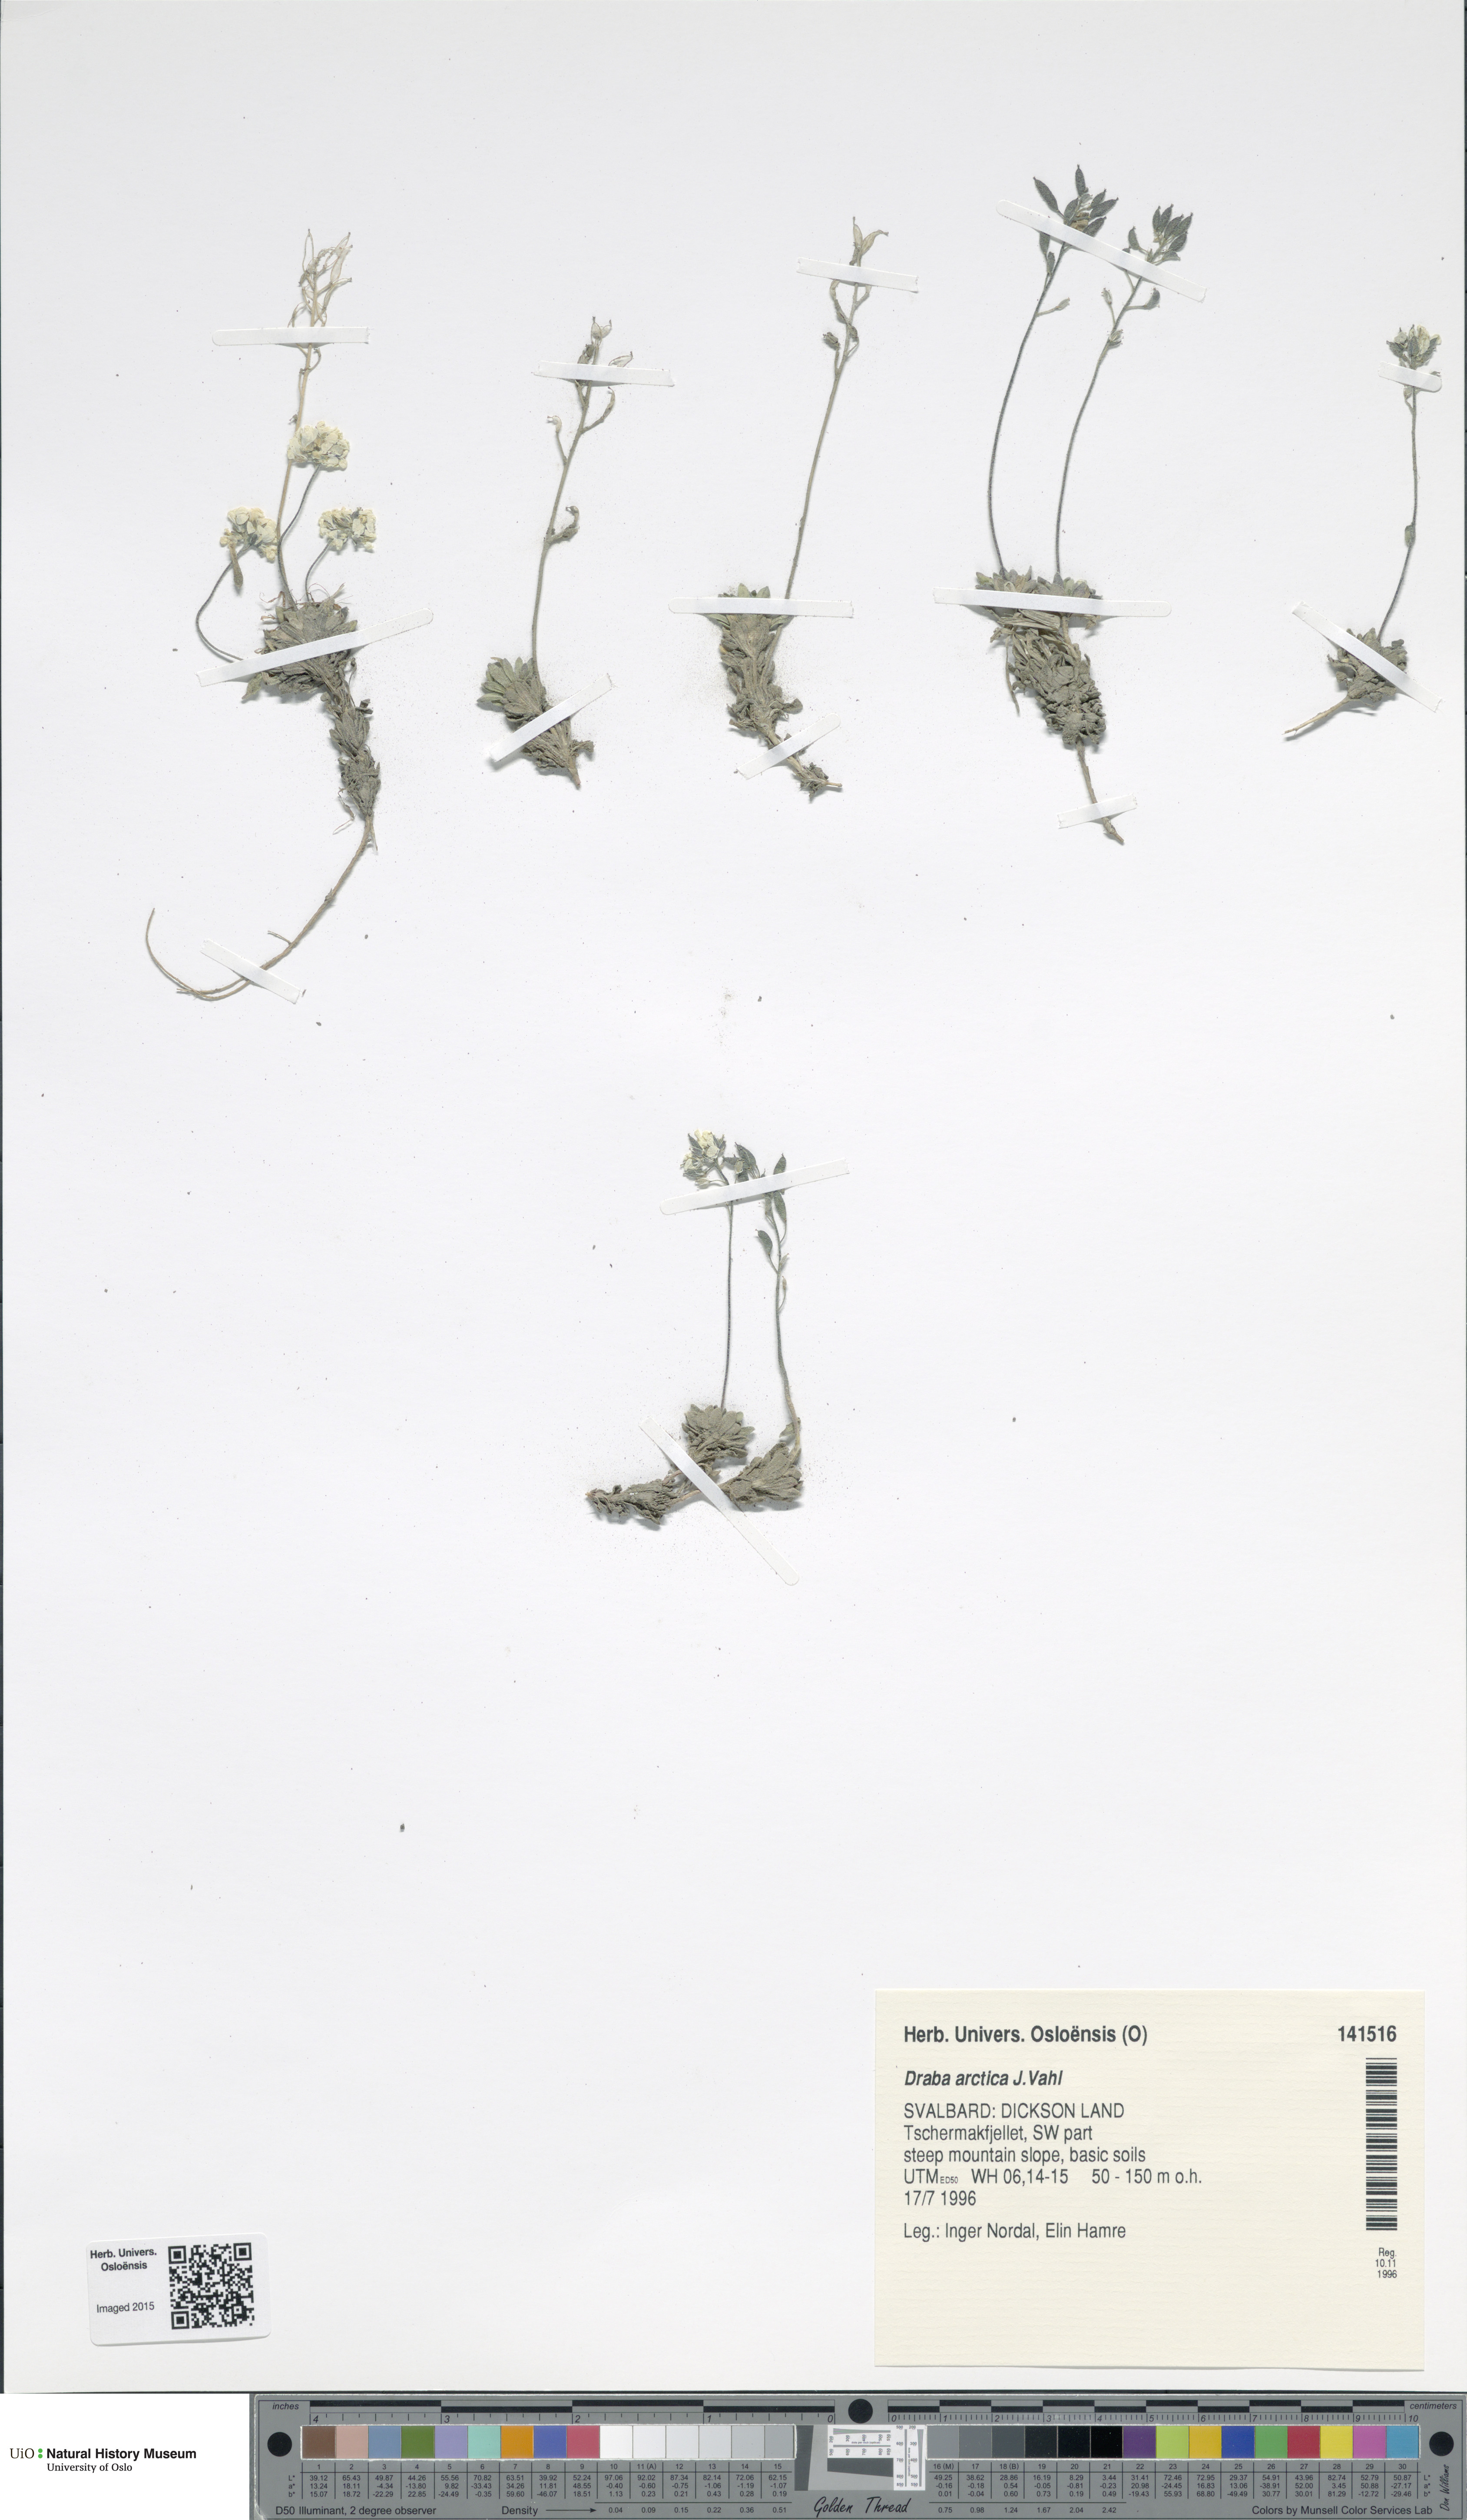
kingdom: Plantae
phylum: Tracheophyta
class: Magnoliopsida
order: Brassicales
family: Brassicaceae
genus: Draba
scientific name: Draba arctica
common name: Arctic draba
